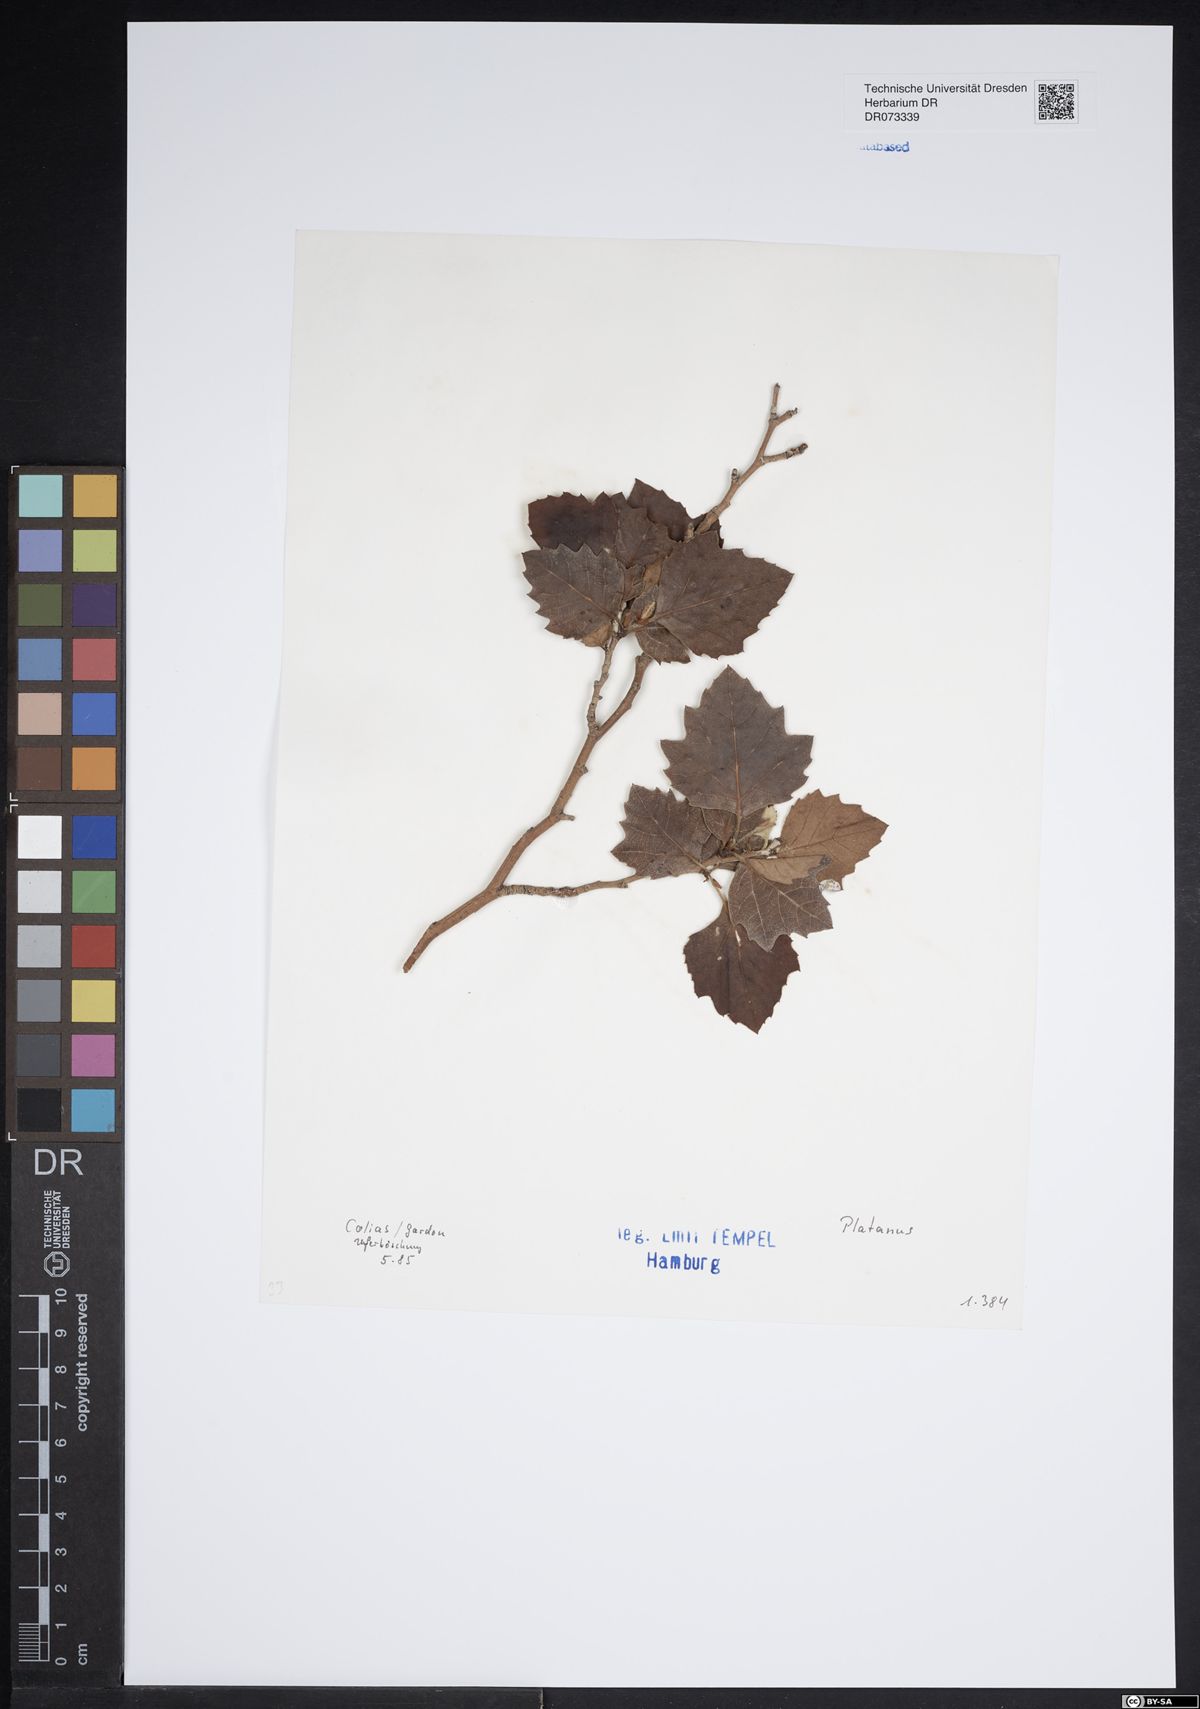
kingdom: Plantae
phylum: Tracheophyta
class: Magnoliopsida
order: Proteales
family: Platanaceae
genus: Platanus
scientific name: Platanus
